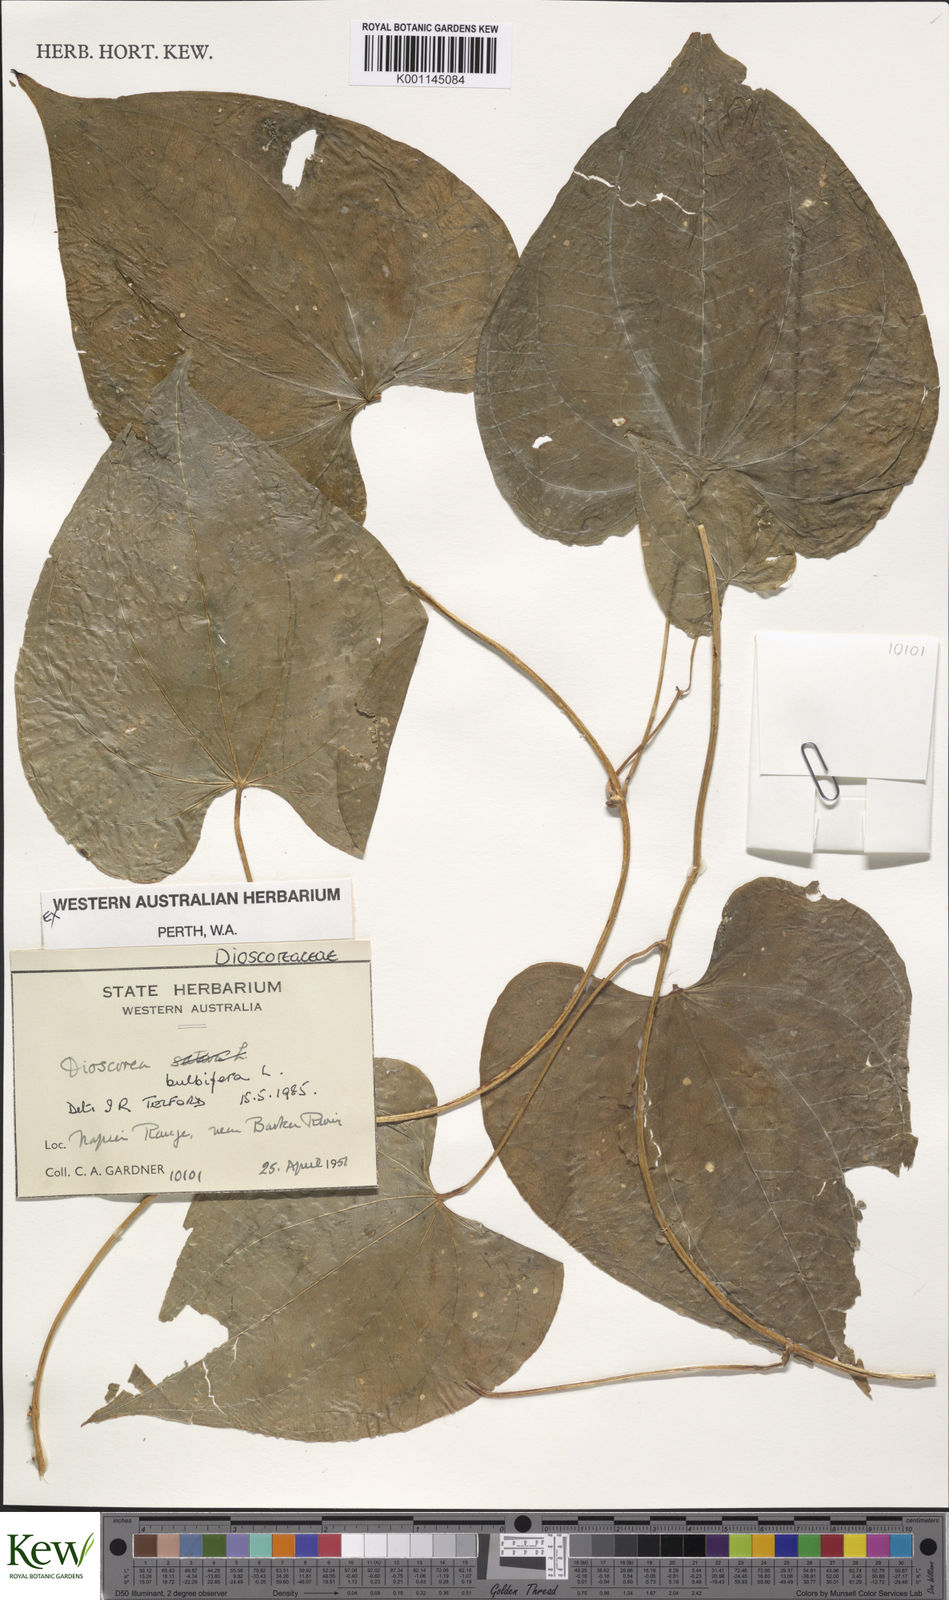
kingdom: Plantae
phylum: Tracheophyta
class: Liliopsida
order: Dioscoreales
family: Dioscoreaceae
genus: Dioscorea
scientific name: Dioscorea bulbifera
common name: Air yam
